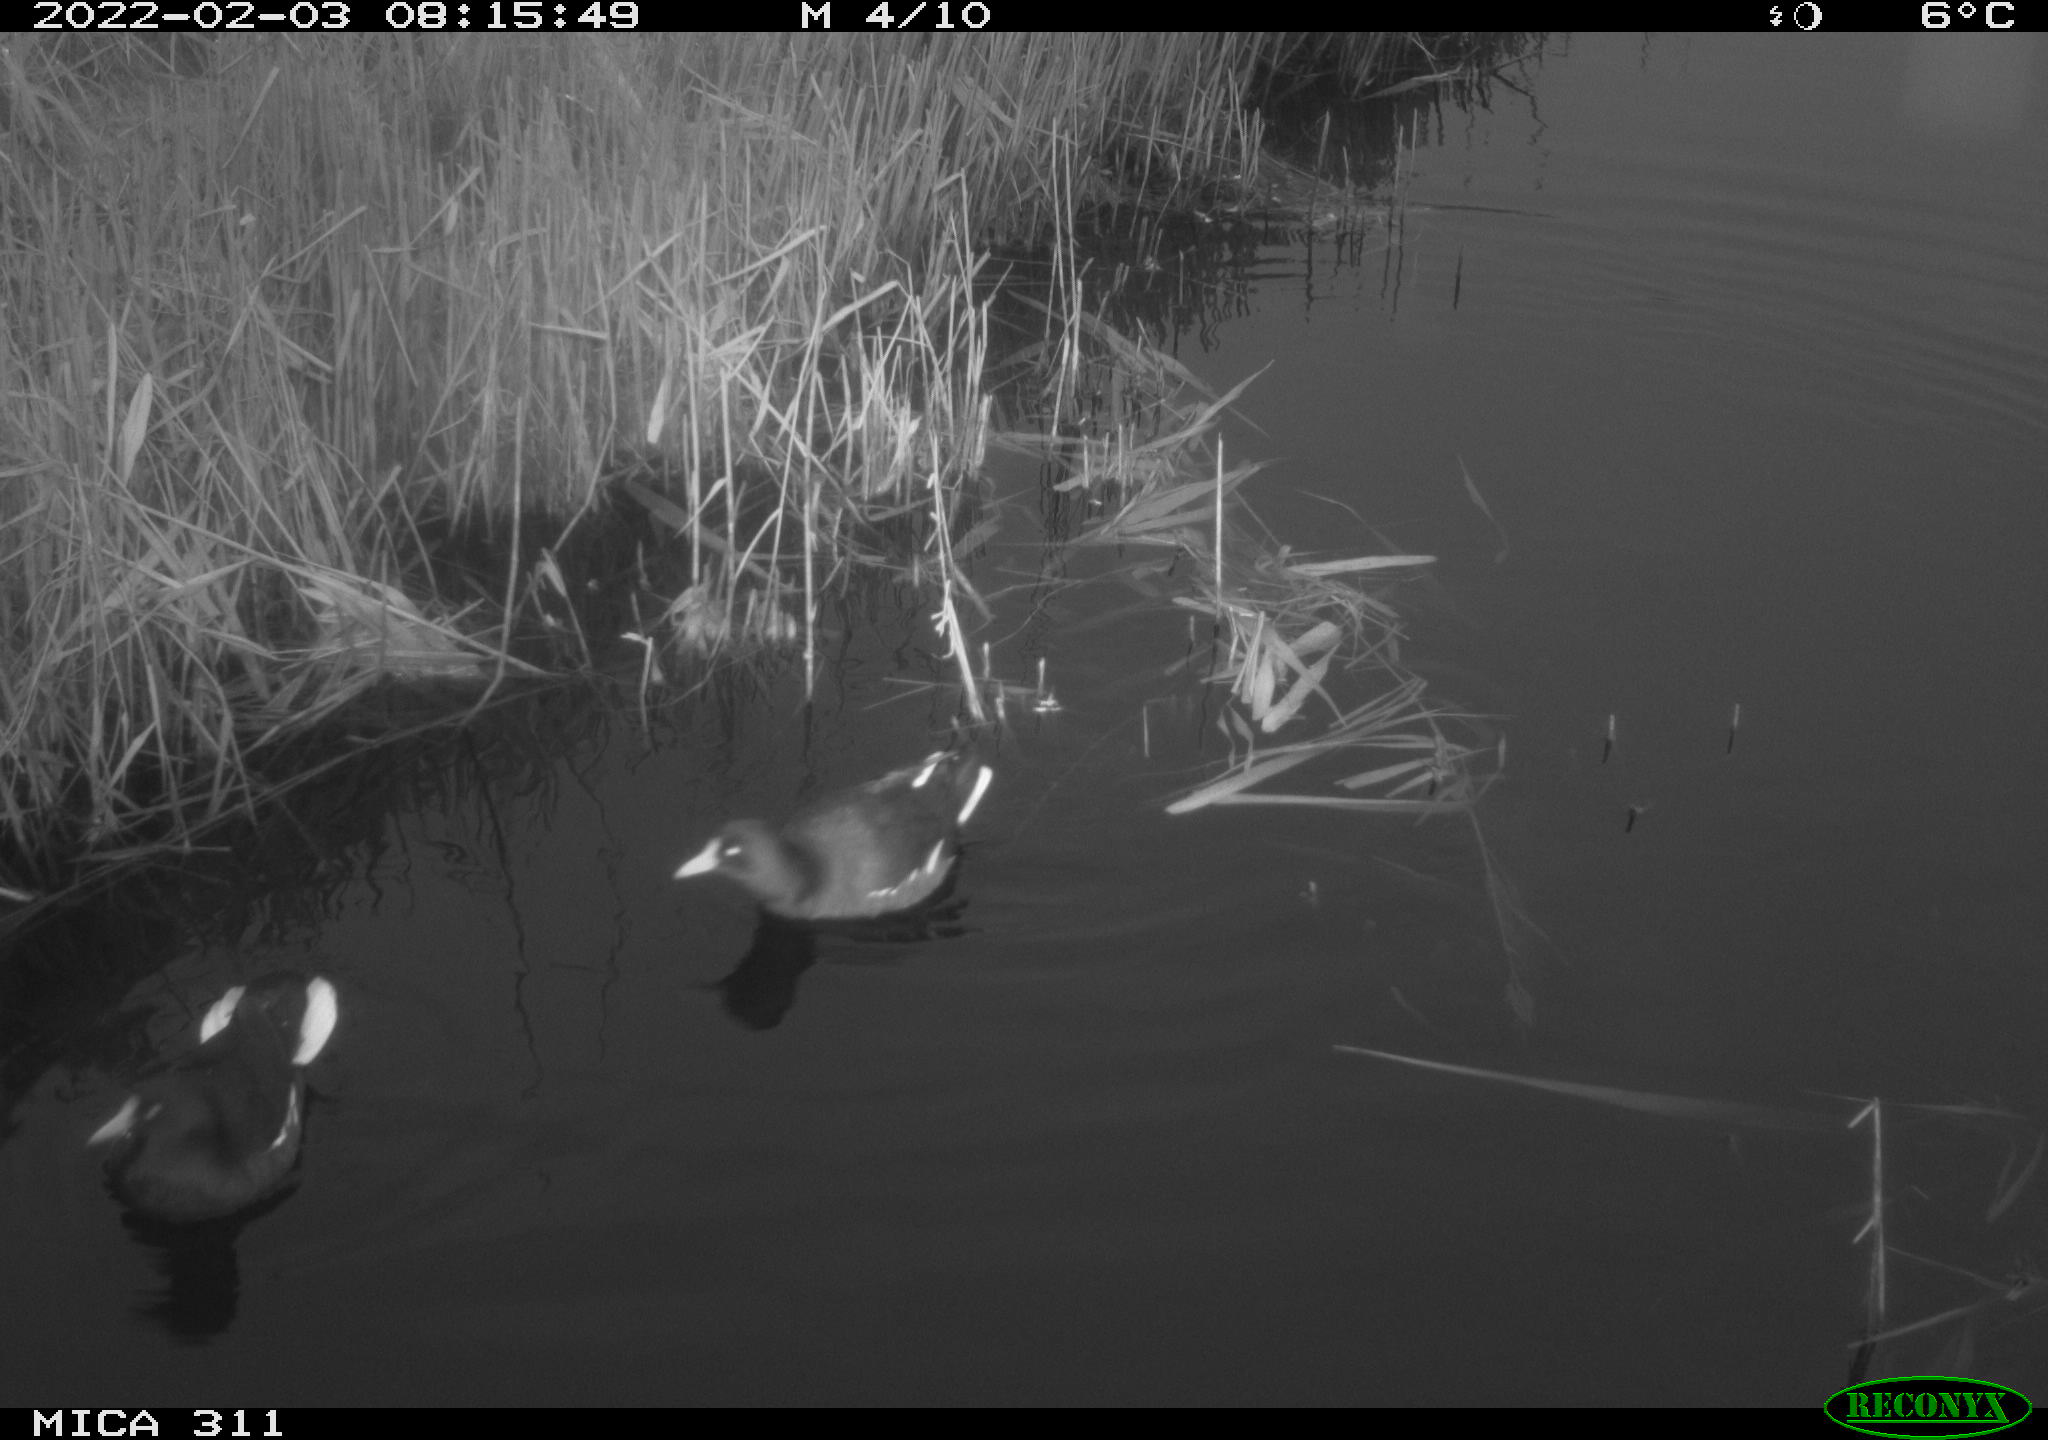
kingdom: Animalia
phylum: Chordata
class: Aves
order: Gruiformes
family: Rallidae
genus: Gallinula
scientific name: Gallinula chloropus
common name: Common moorhen
